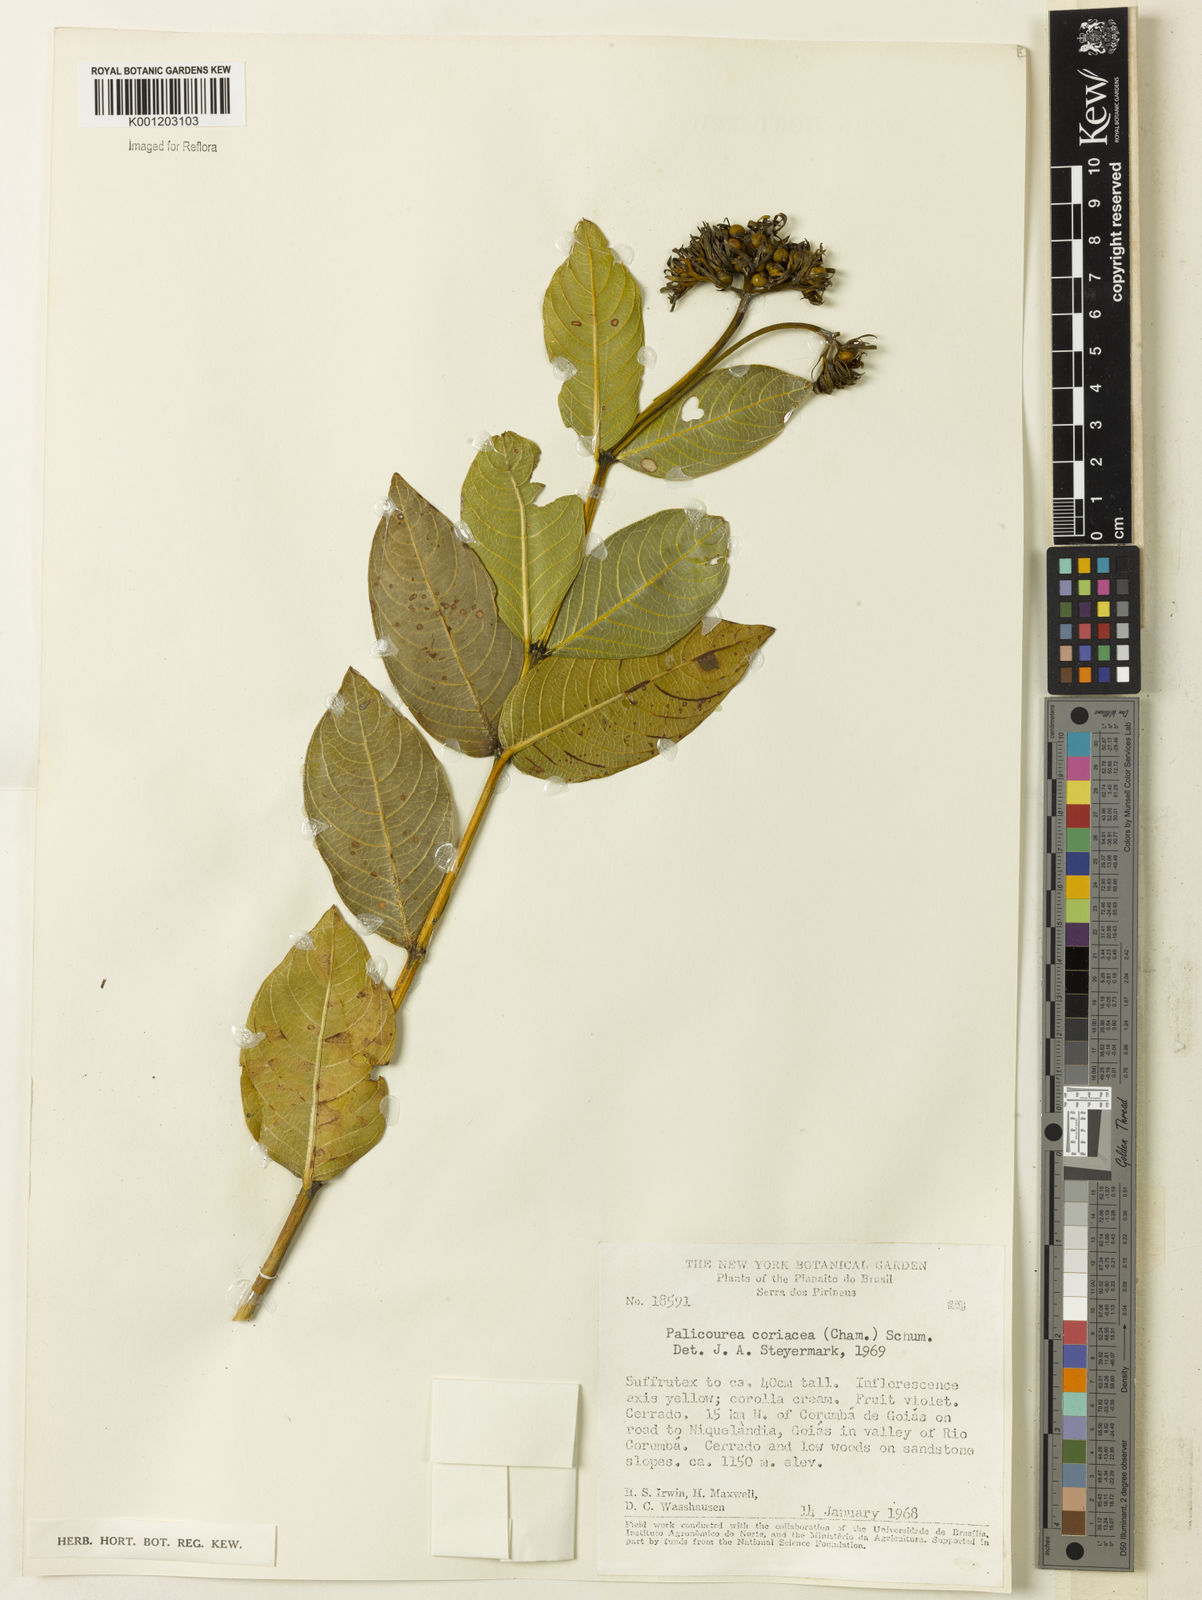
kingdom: Plantae
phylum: Tracheophyta
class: Magnoliopsida
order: Gentianales
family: Rubiaceae
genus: Palicourea
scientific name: Palicourea coriacea
